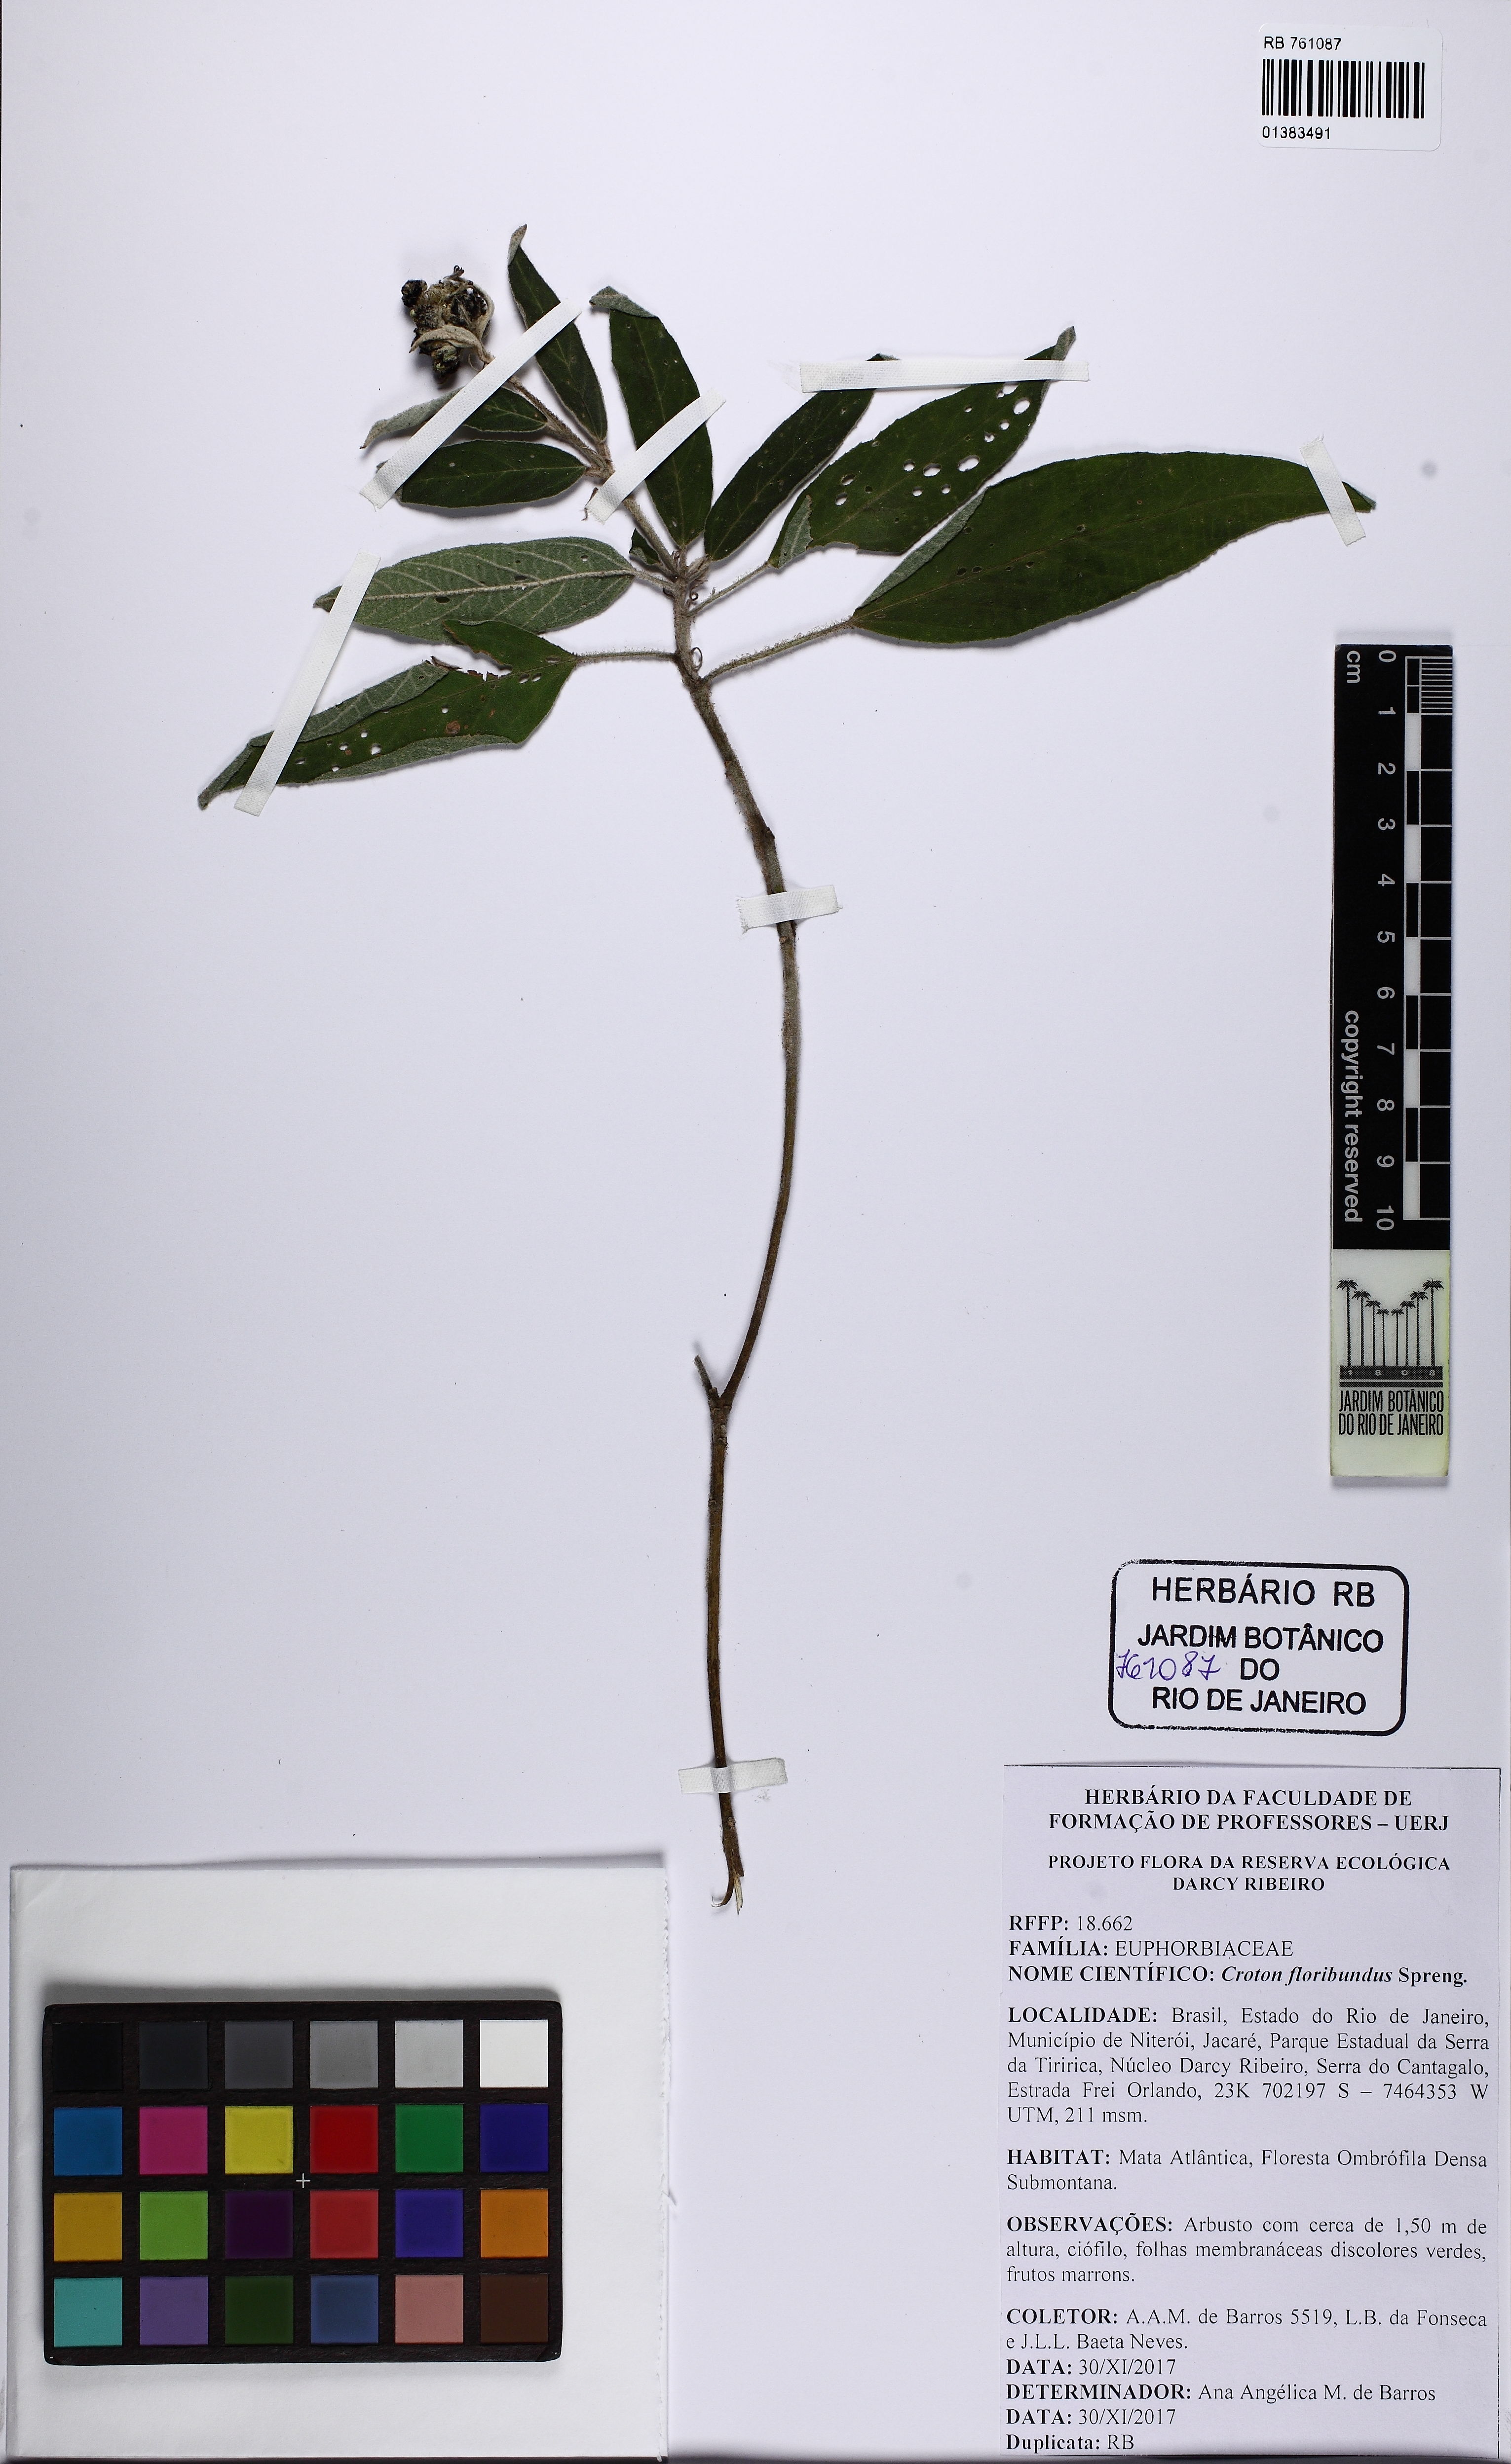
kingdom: Plantae
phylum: Tracheophyta
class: Magnoliopsida
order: Malpighiales
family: Euphorbiaceae
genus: Croton
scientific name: Croton floribundus
